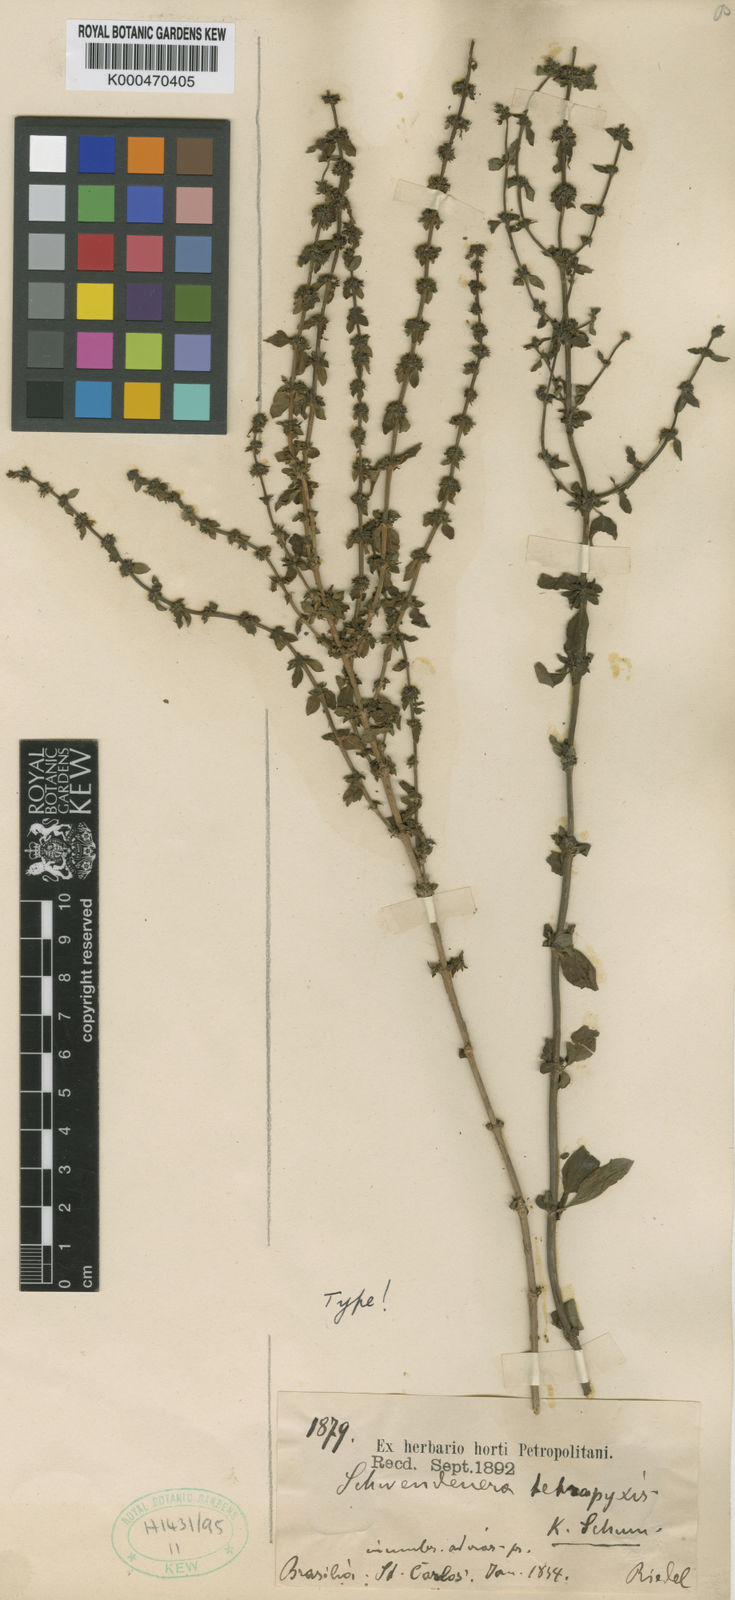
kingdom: Plantae
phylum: Tracheophyta
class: Magnoliopsida
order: Gentianales
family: Rubiaceae
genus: Schwendenera
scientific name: Schwendenera tetrapyxis
